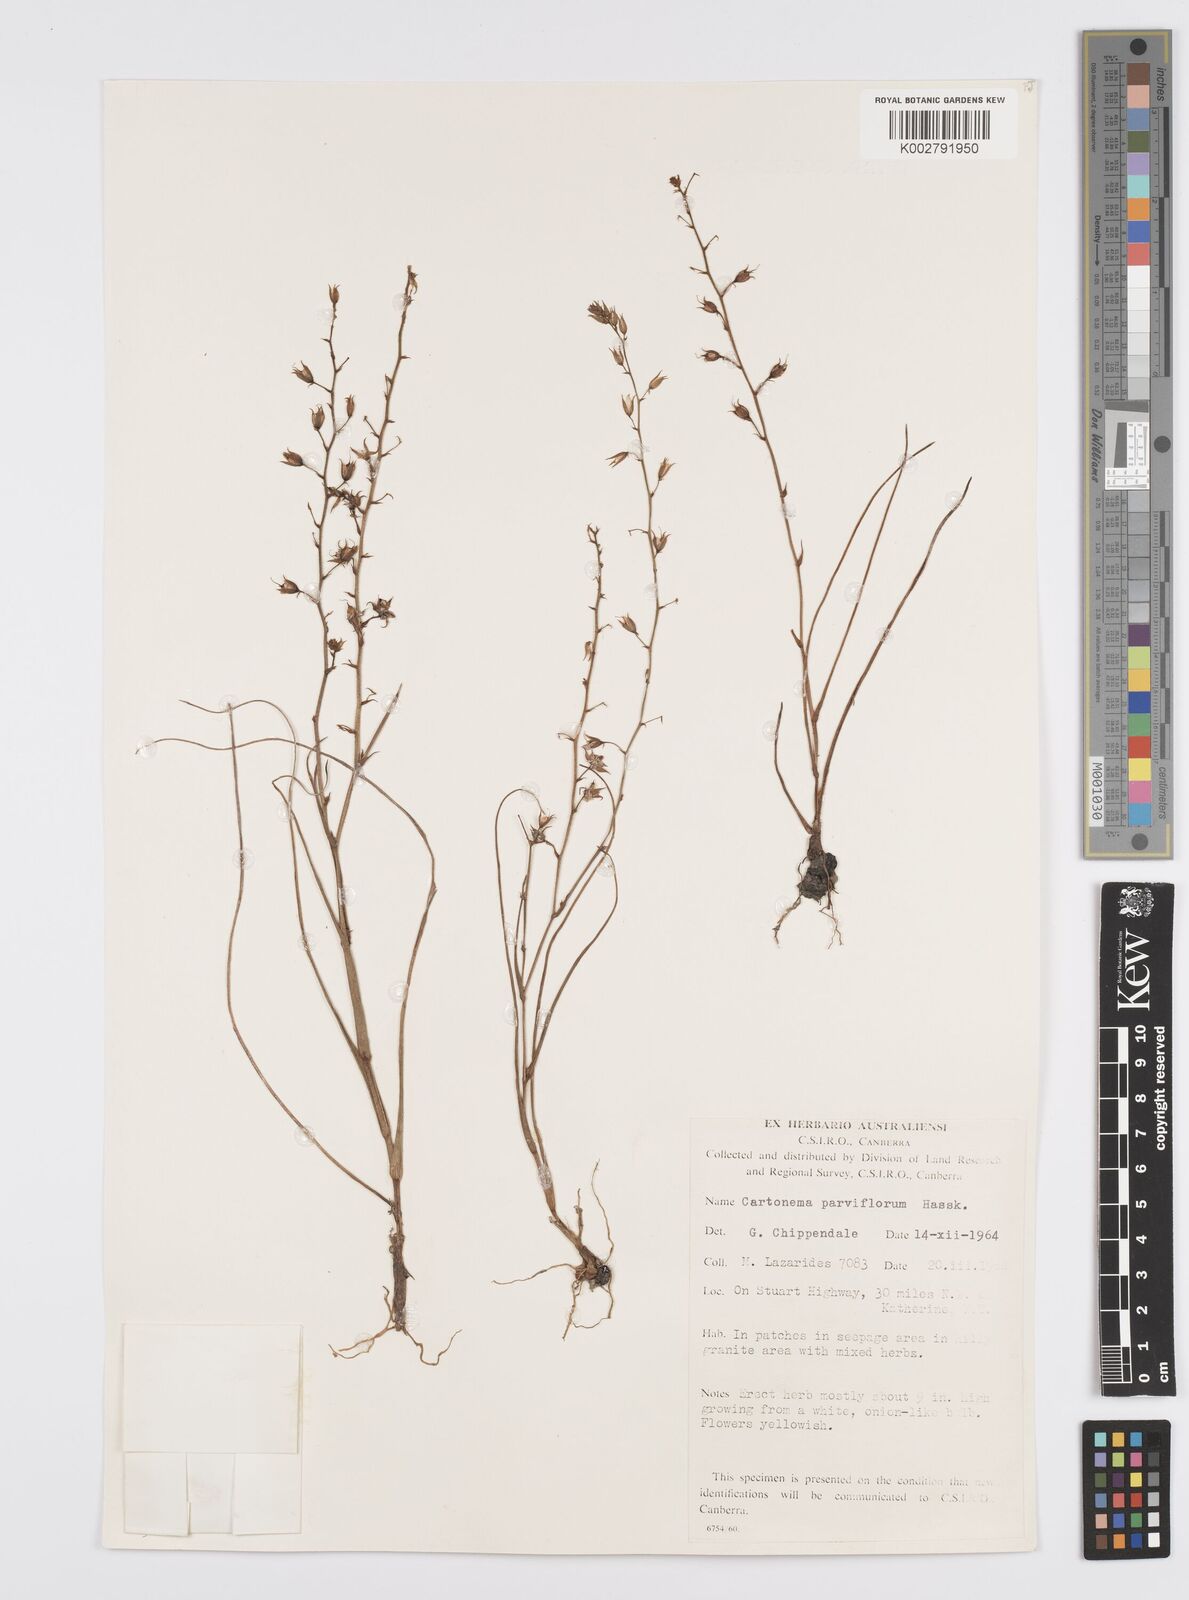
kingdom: Plantae
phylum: Tracheophyta
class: Liliopsida
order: Commelinales
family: Commelinaceae
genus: Cartonema
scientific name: Cartonema parviflorum
